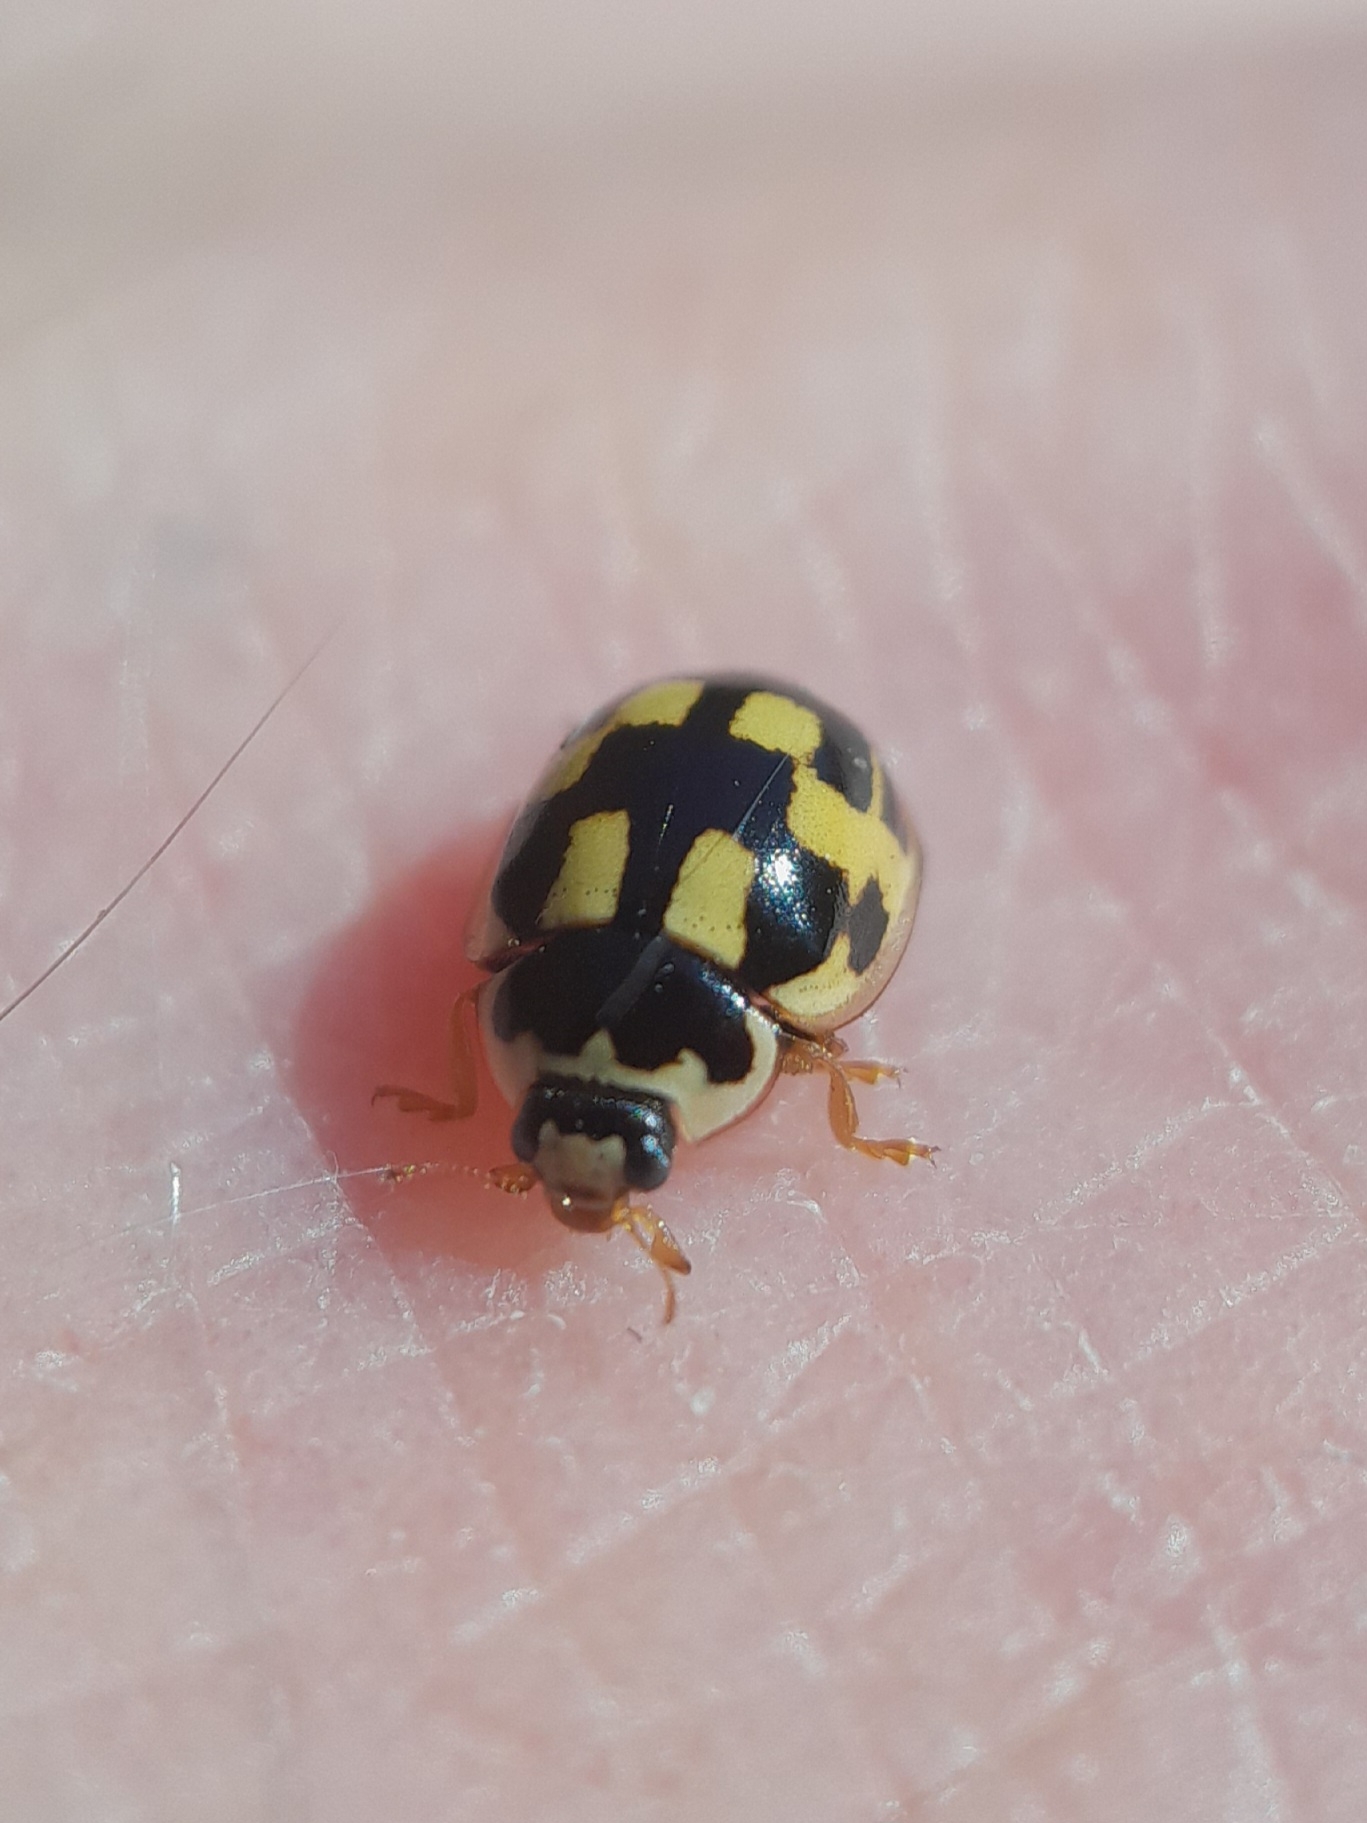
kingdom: Animalia
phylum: Arthropoda
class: Insecta
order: Coleoptera
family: Coccinellidae
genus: Propylaea
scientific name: Propylaea quatuordecimpunctata
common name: Skakbræt
